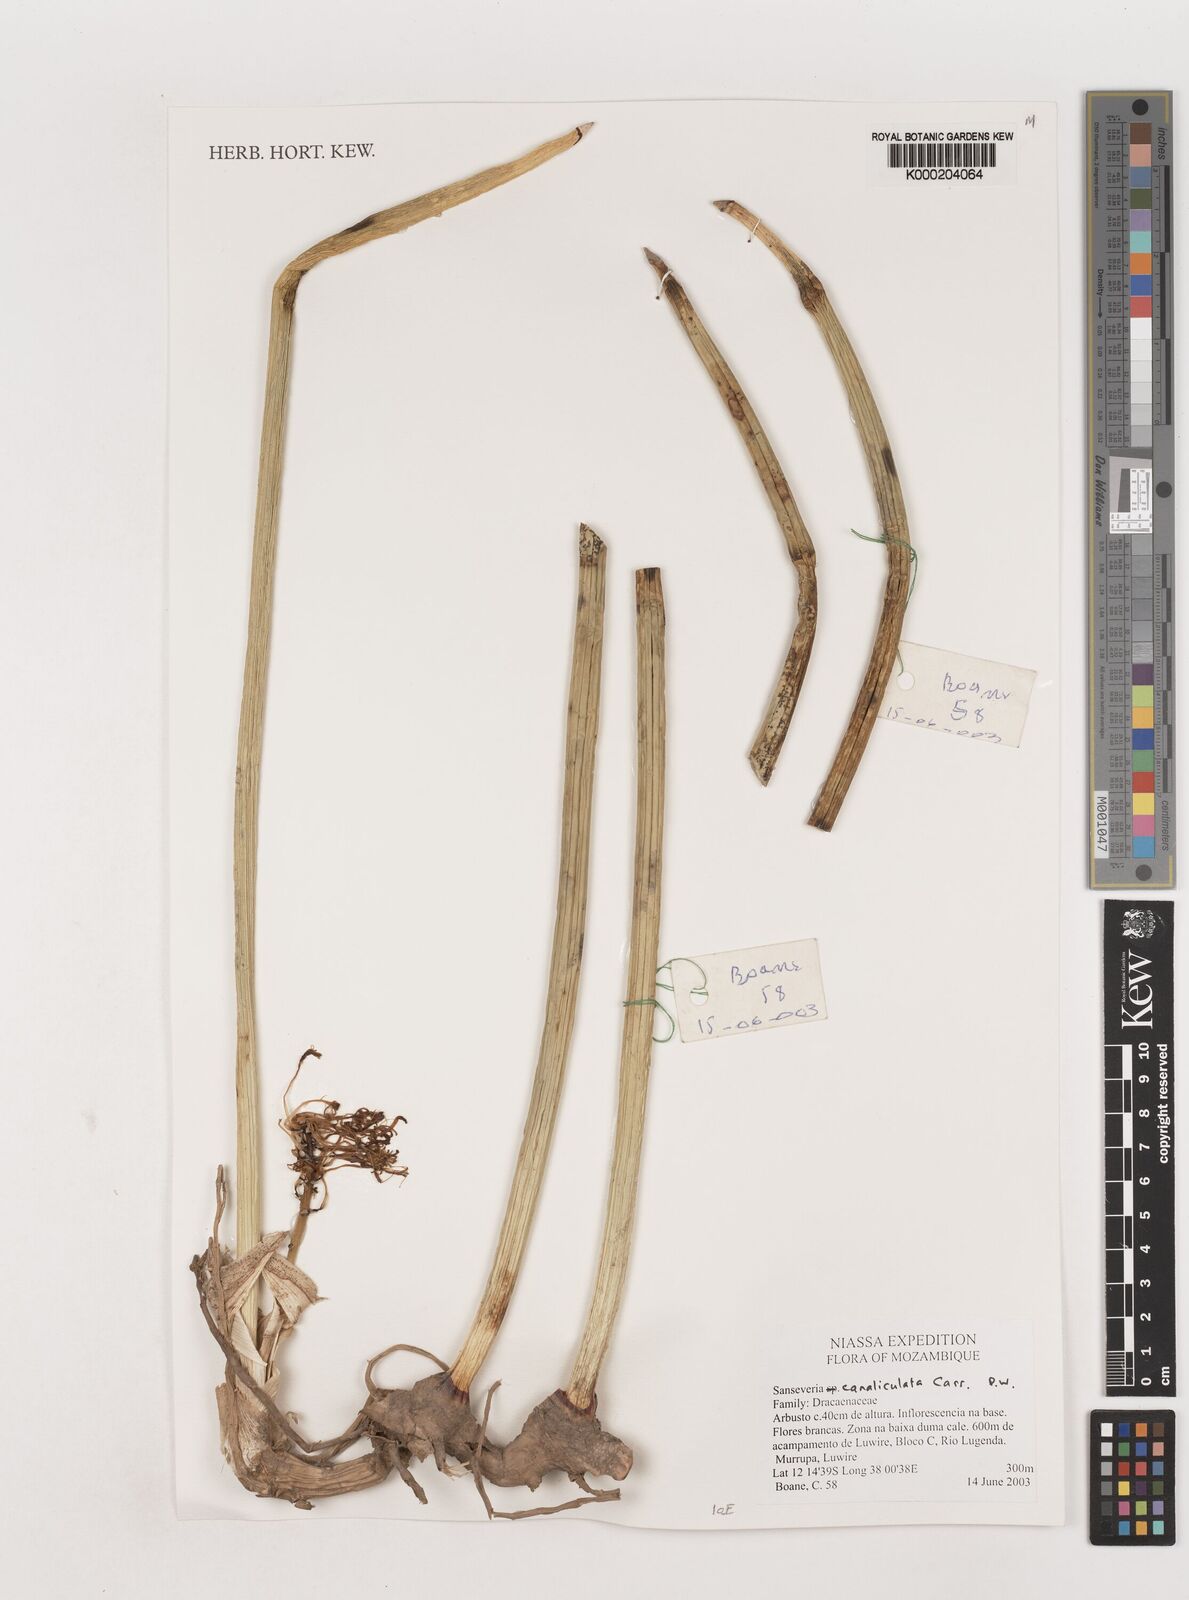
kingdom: Plantae
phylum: Tracheophyta
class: Liliopsida
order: Asparagales
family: Asparagaceae
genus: Dracaena
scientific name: Dracaena
